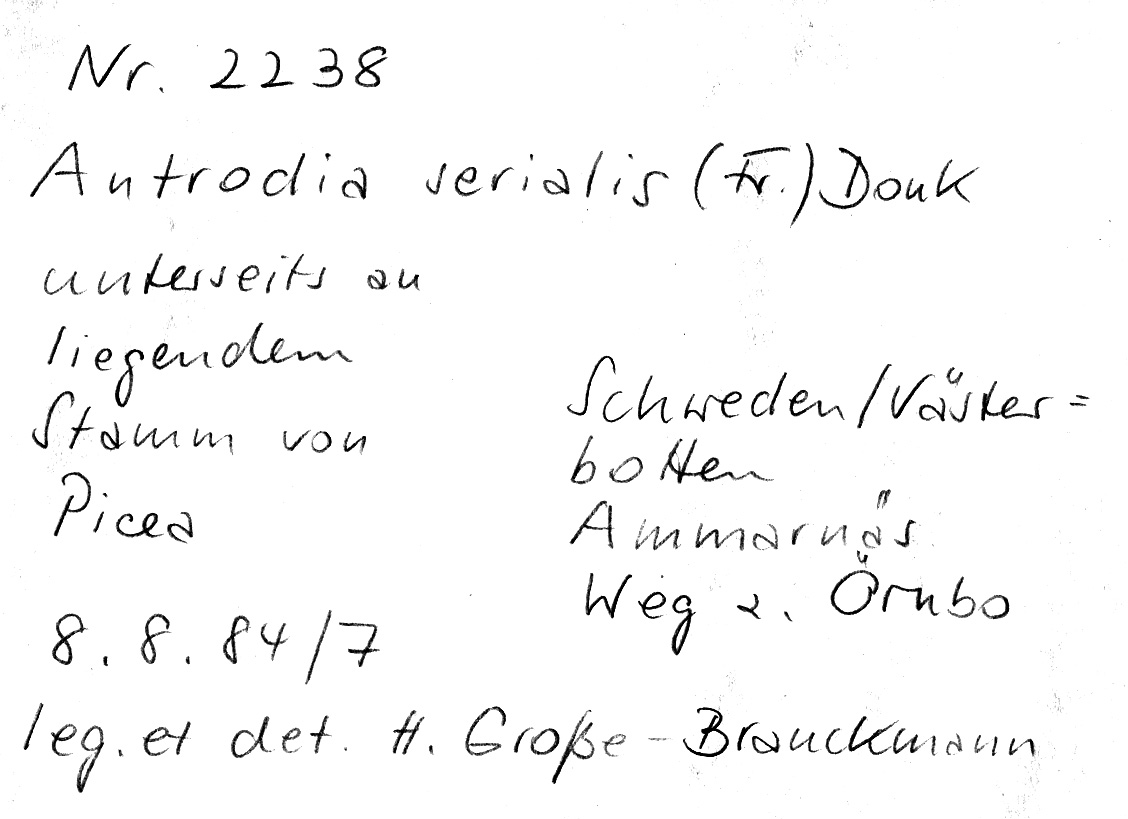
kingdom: Plantae
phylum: Tracheophyta
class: Pinopsida
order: Pinales
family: Pinaceae
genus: Picea
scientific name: Picea
